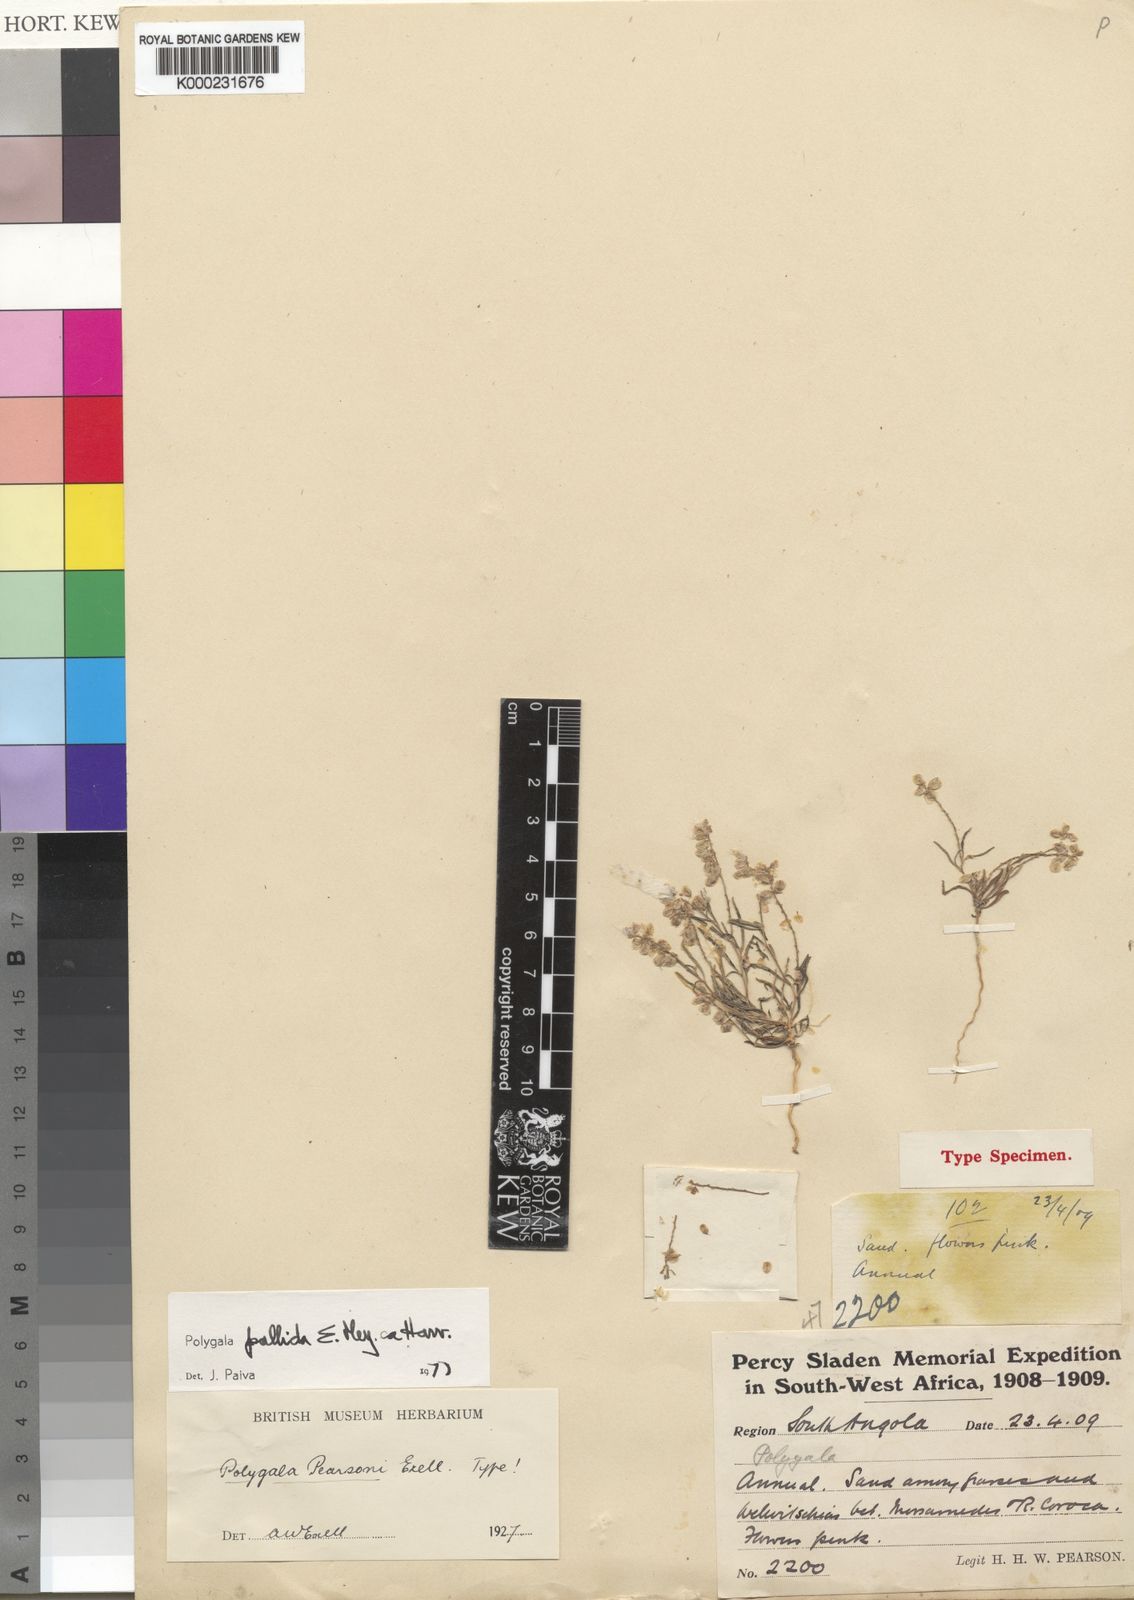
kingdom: Plantae
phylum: Tracheophyta
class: Magnoliopsida
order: Fabales
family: Polygalaceae
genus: Polygala
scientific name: Polygala
